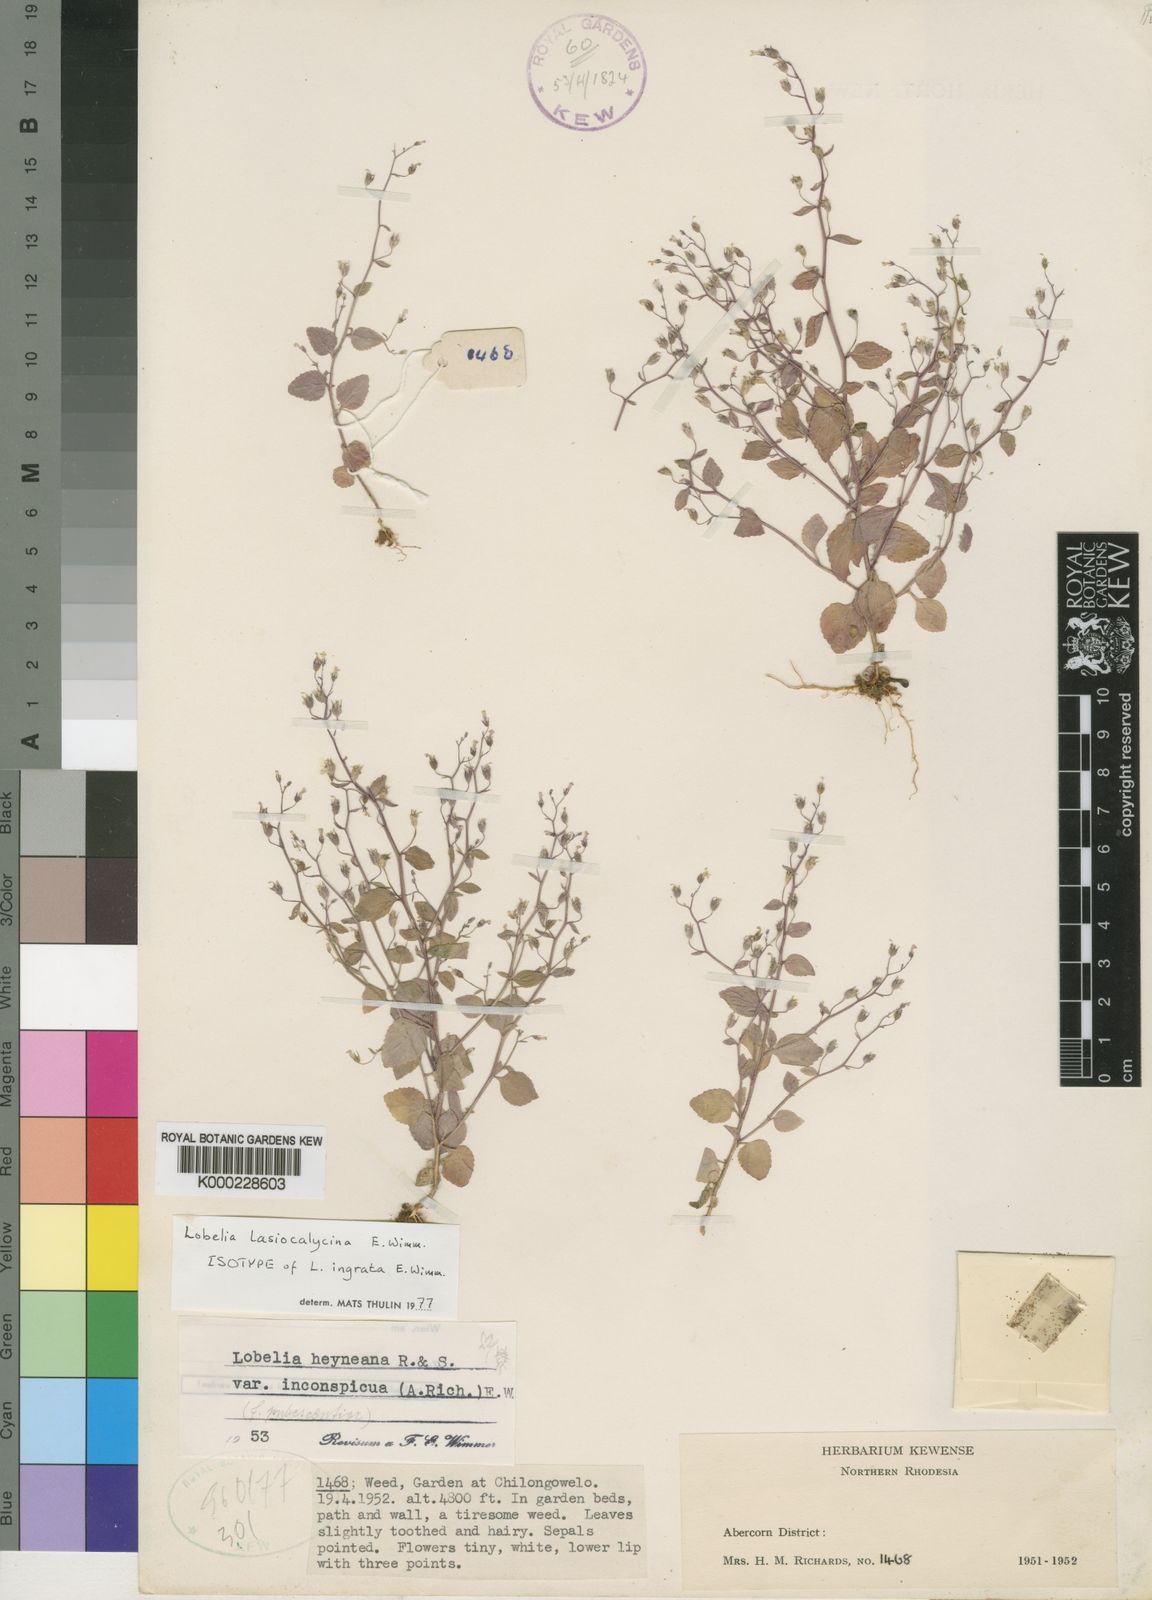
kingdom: Plantae
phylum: Tracheophyta
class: Magnoliopsida
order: Asterales
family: Campanulaceae
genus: Lobelia
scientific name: Lobelia lasiocalycina
